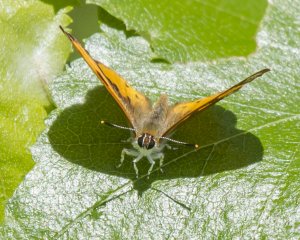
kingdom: Animalia
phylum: Arthropoda
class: Insecta
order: Lepidoptera
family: Lycaenidae
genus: Feniseca
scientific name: Feniseca tarquinius
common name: Harvester
